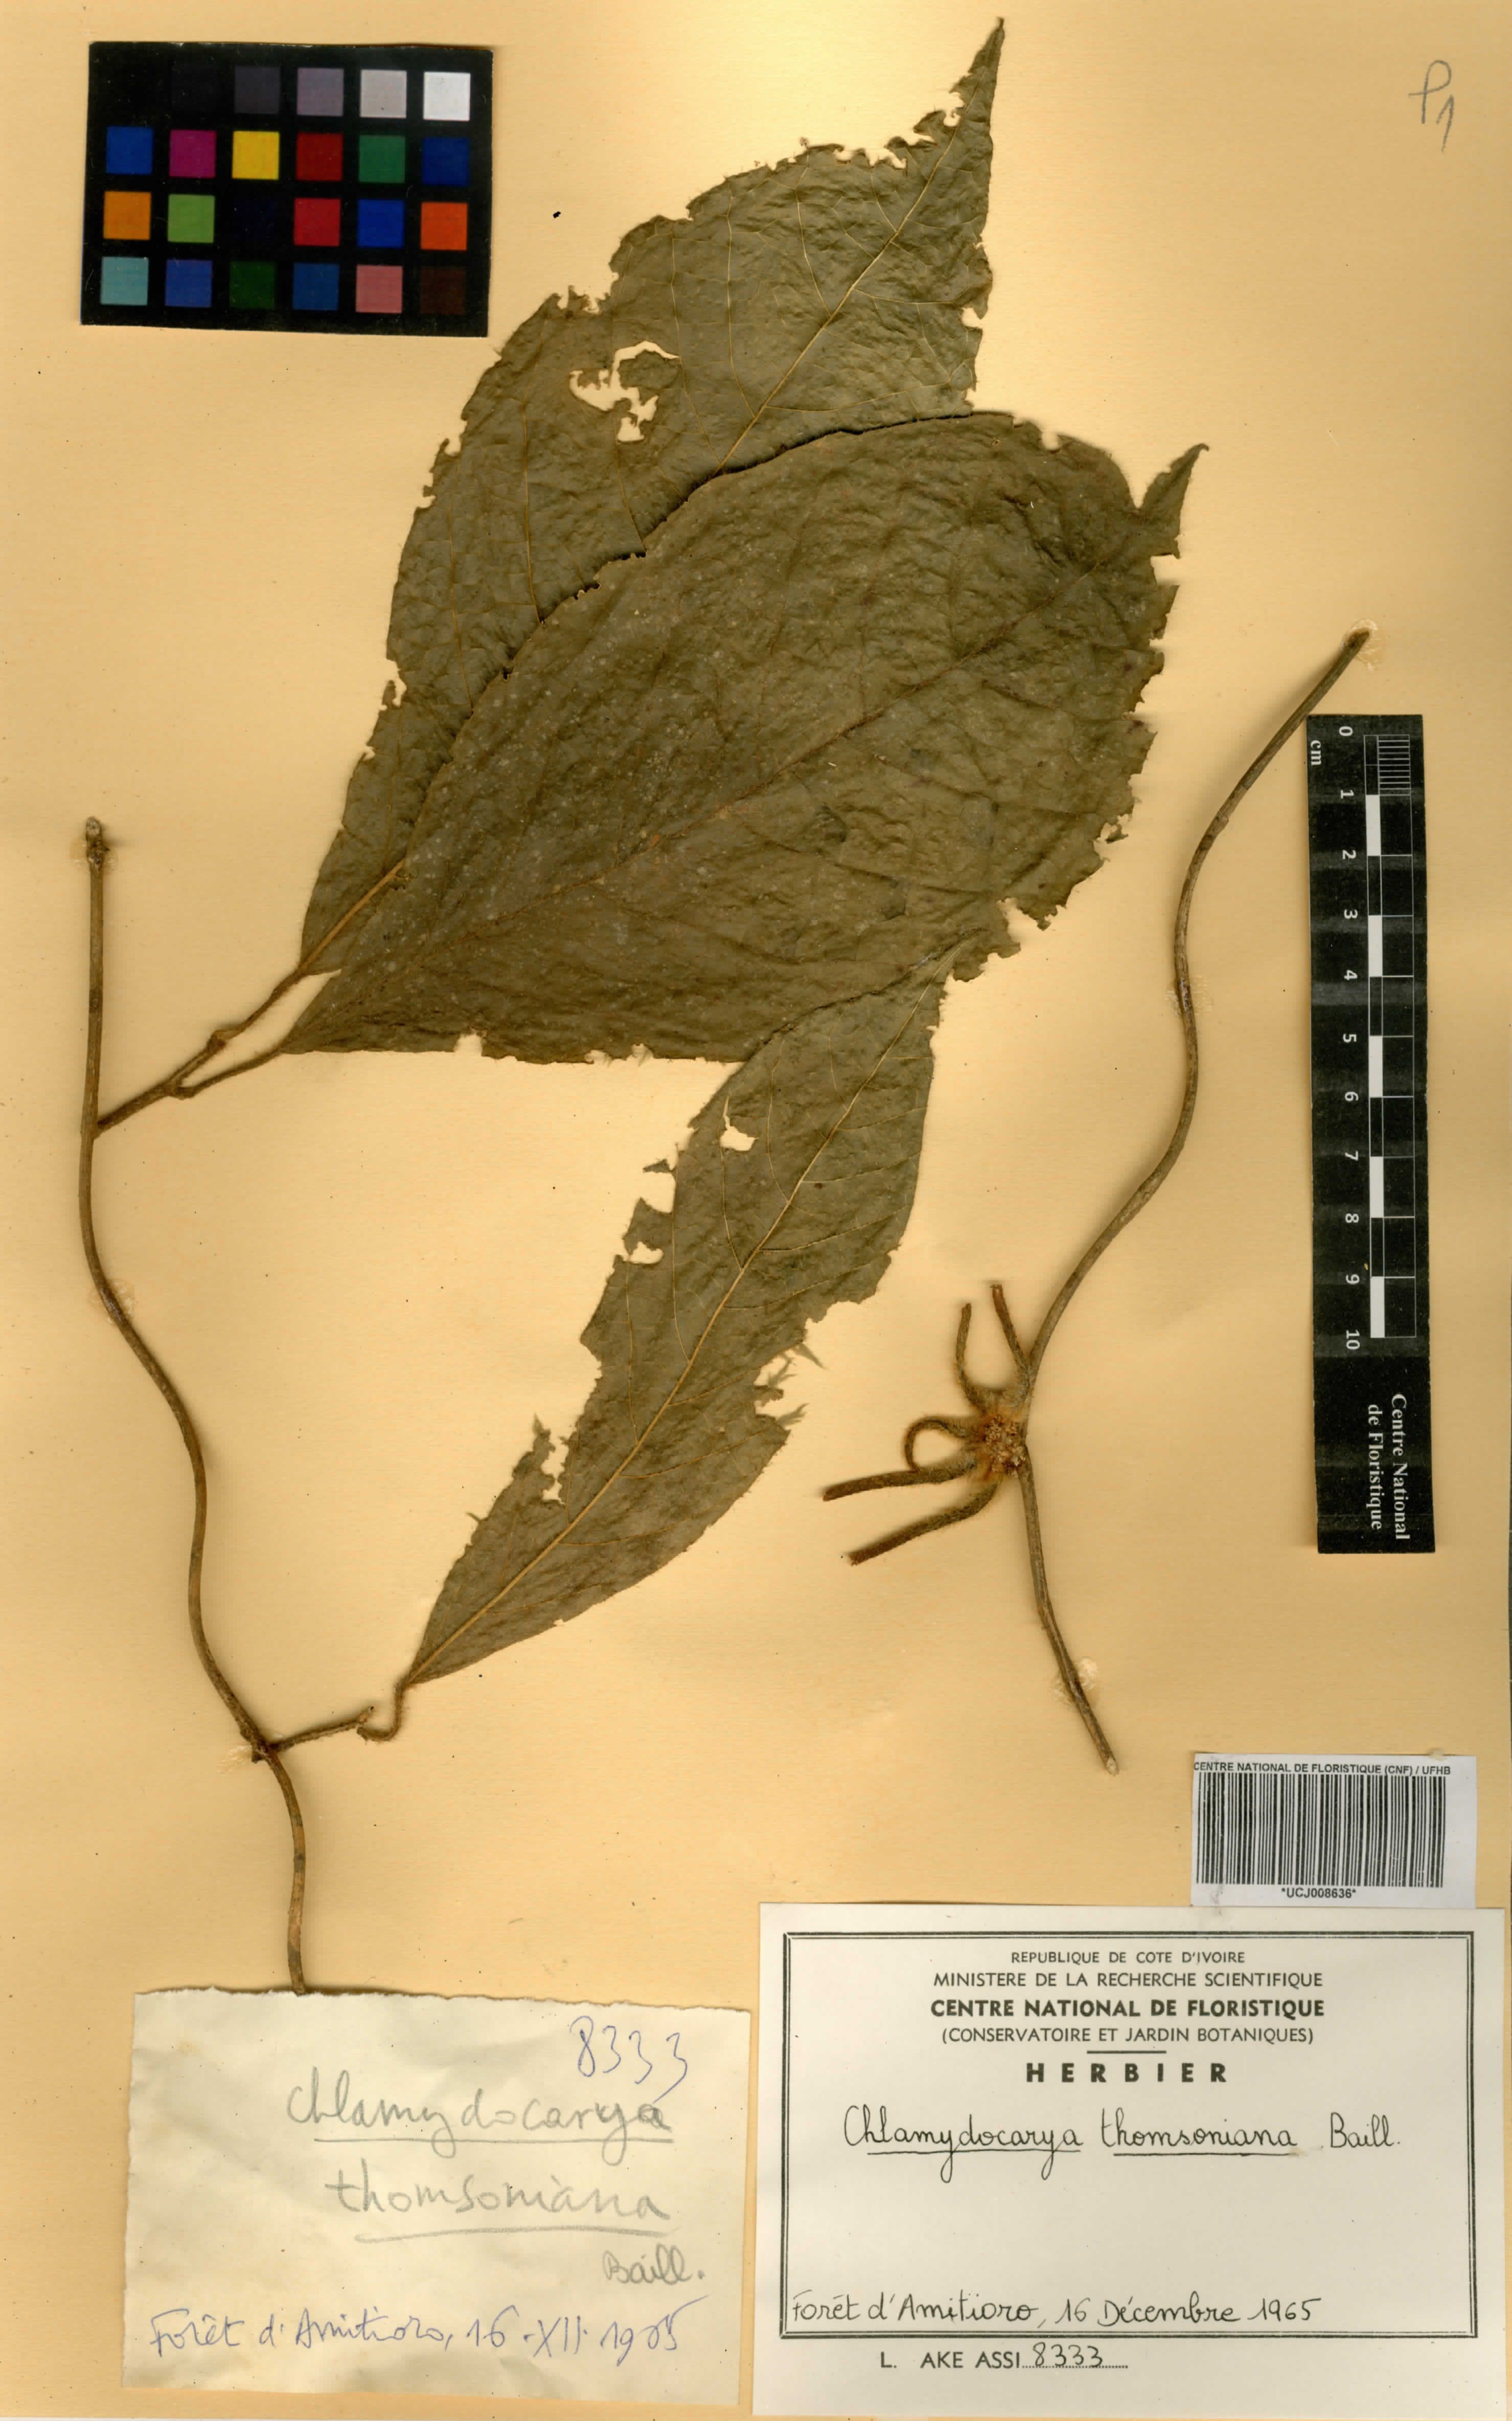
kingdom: Plantae
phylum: Tracheophyta
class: Magnoliopsida
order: Icacinales
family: Icacinaceae
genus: Pyrenacantha
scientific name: Pyrenacantha thomsoniana
